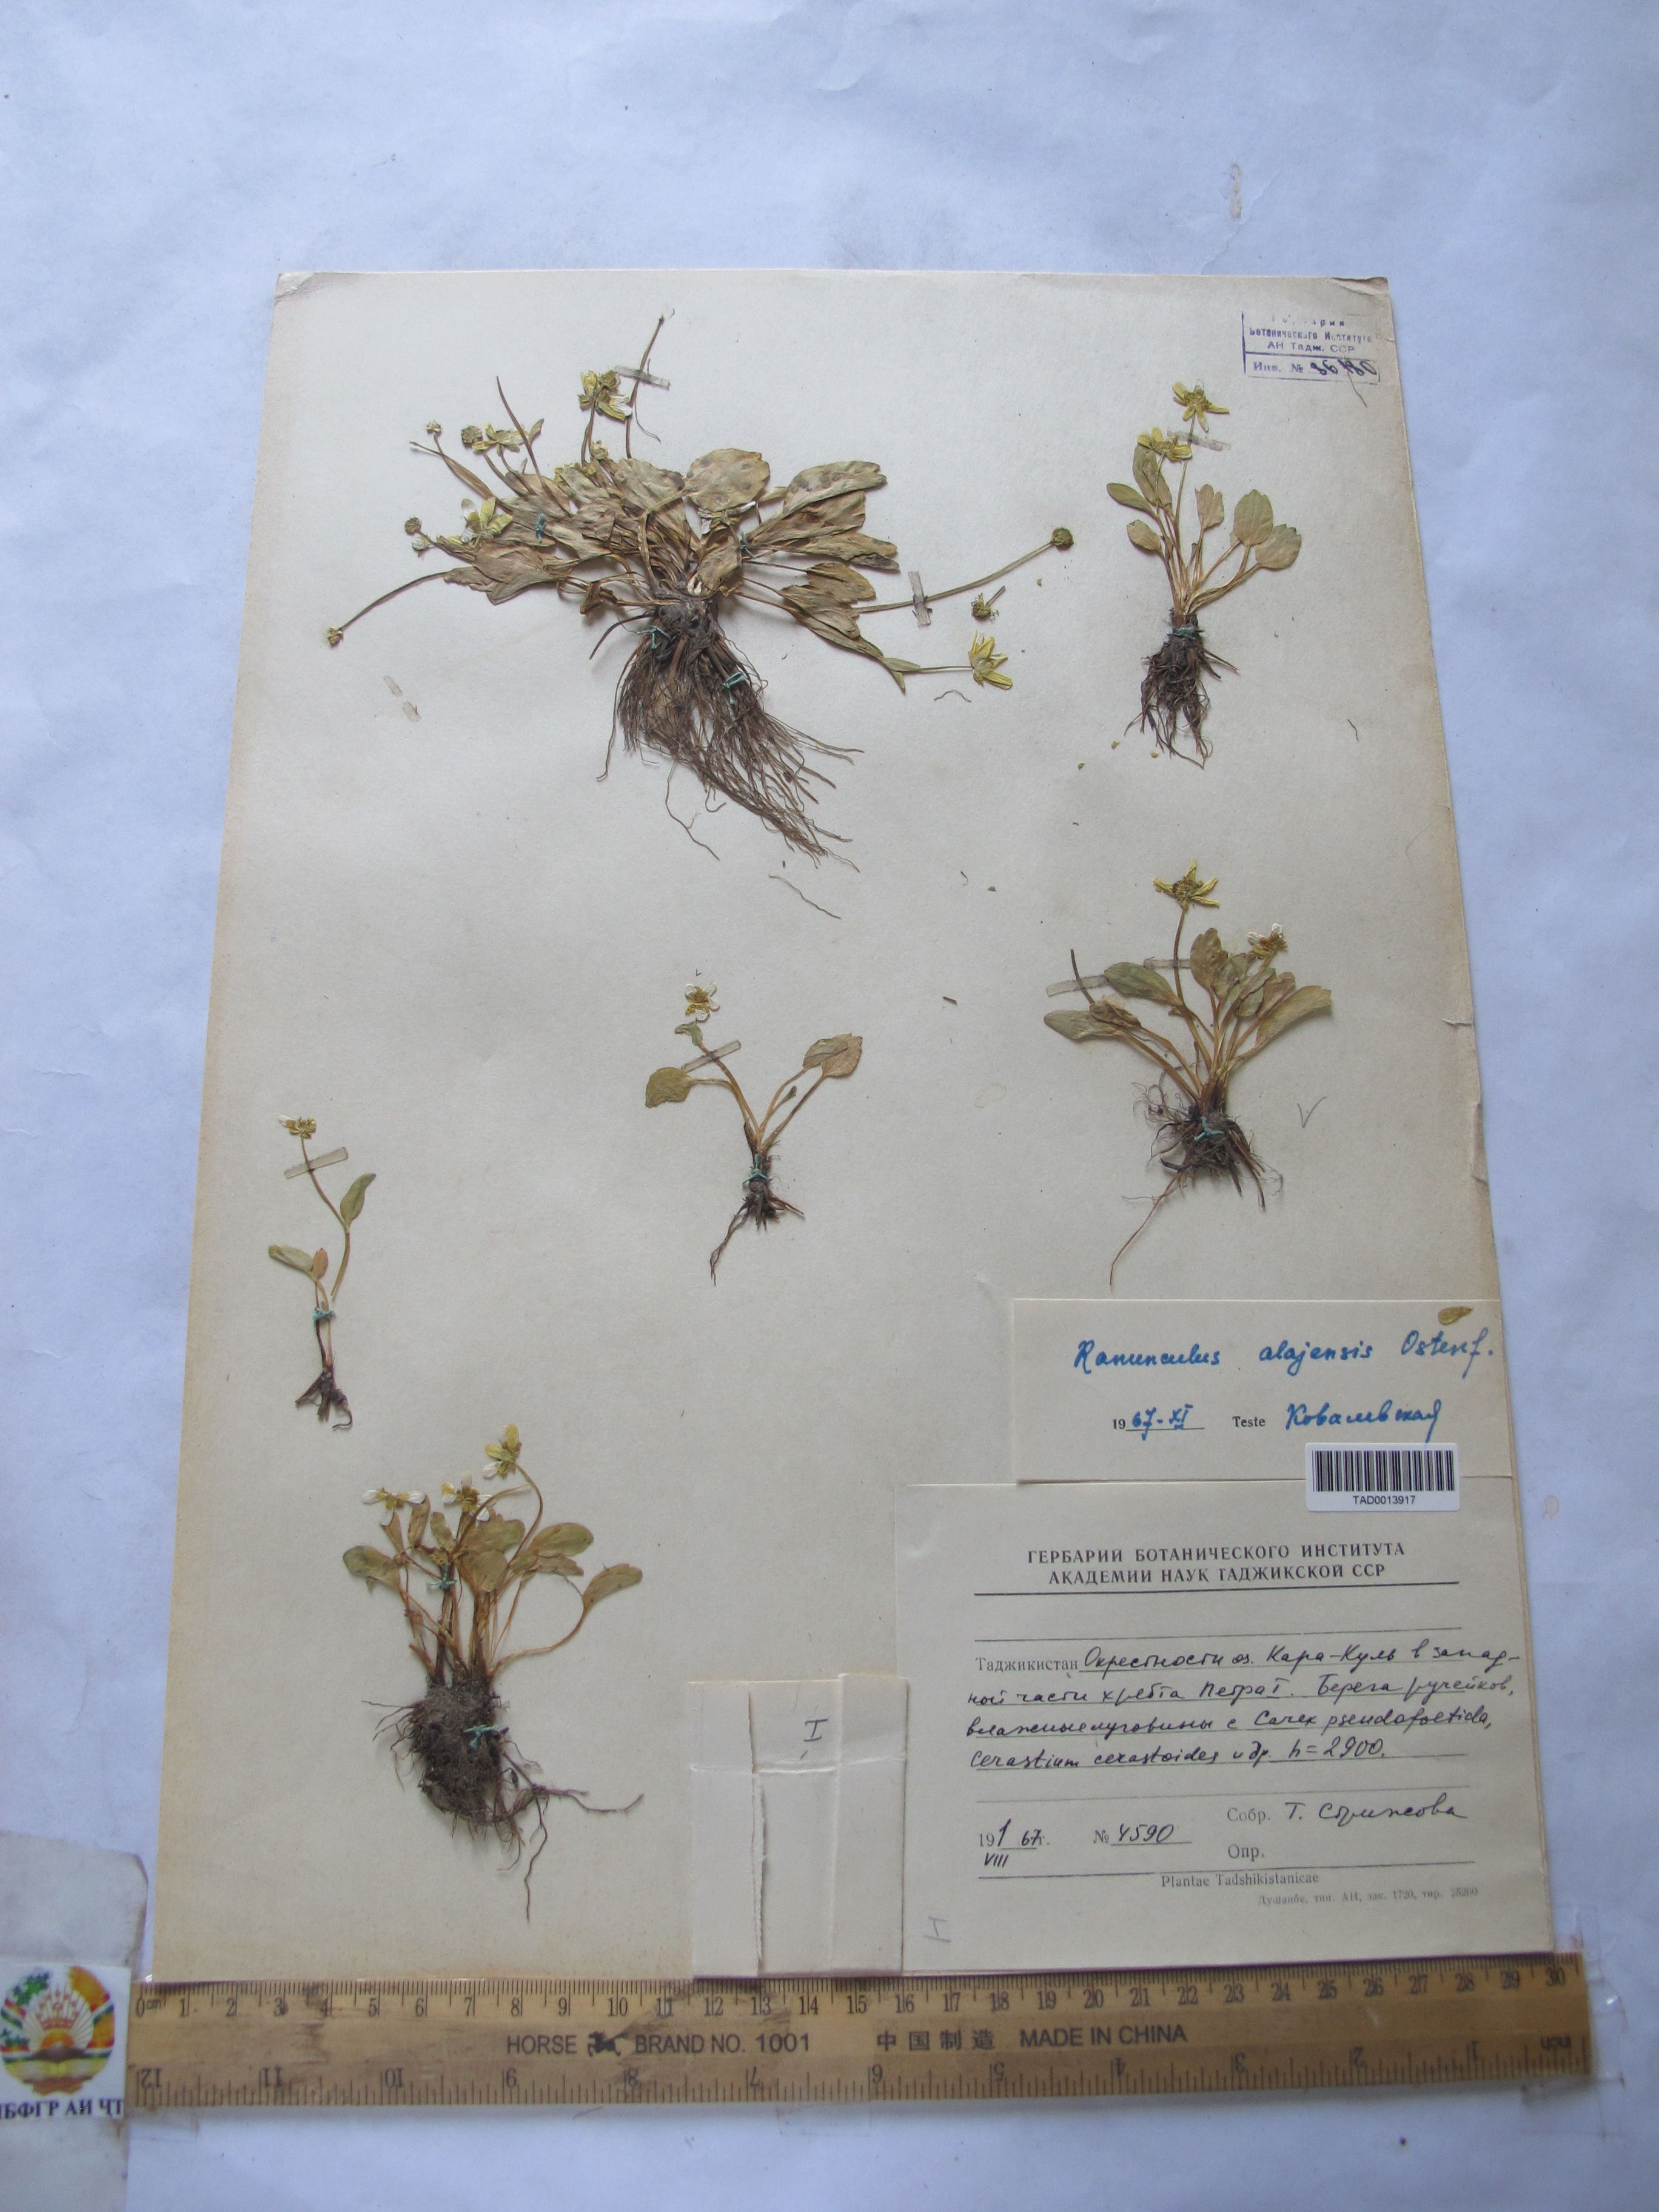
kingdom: Plantae
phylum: Tracheophyta
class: Magnoliopsida
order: Ranunculales
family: Ranunculaceae
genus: Ranunculus
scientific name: Ranunculus alaiensis
